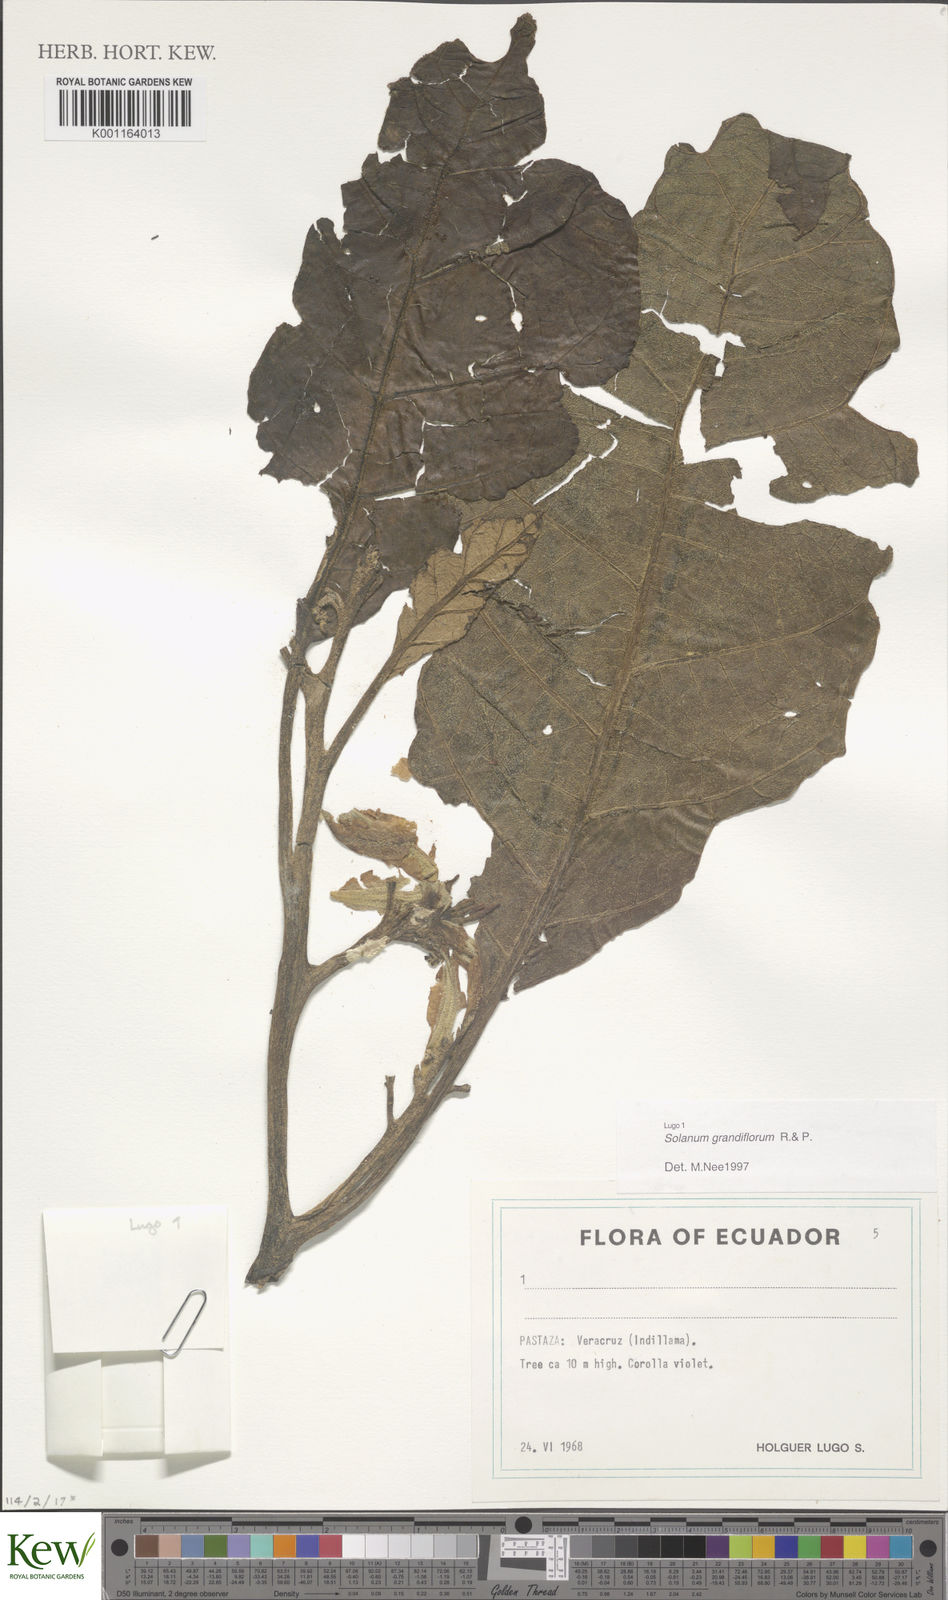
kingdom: Plantae
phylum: Tracheophyta
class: Magnoliopsida
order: Solanales
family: Solanaceae
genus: Solanum
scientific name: Solanum grandiflorum
